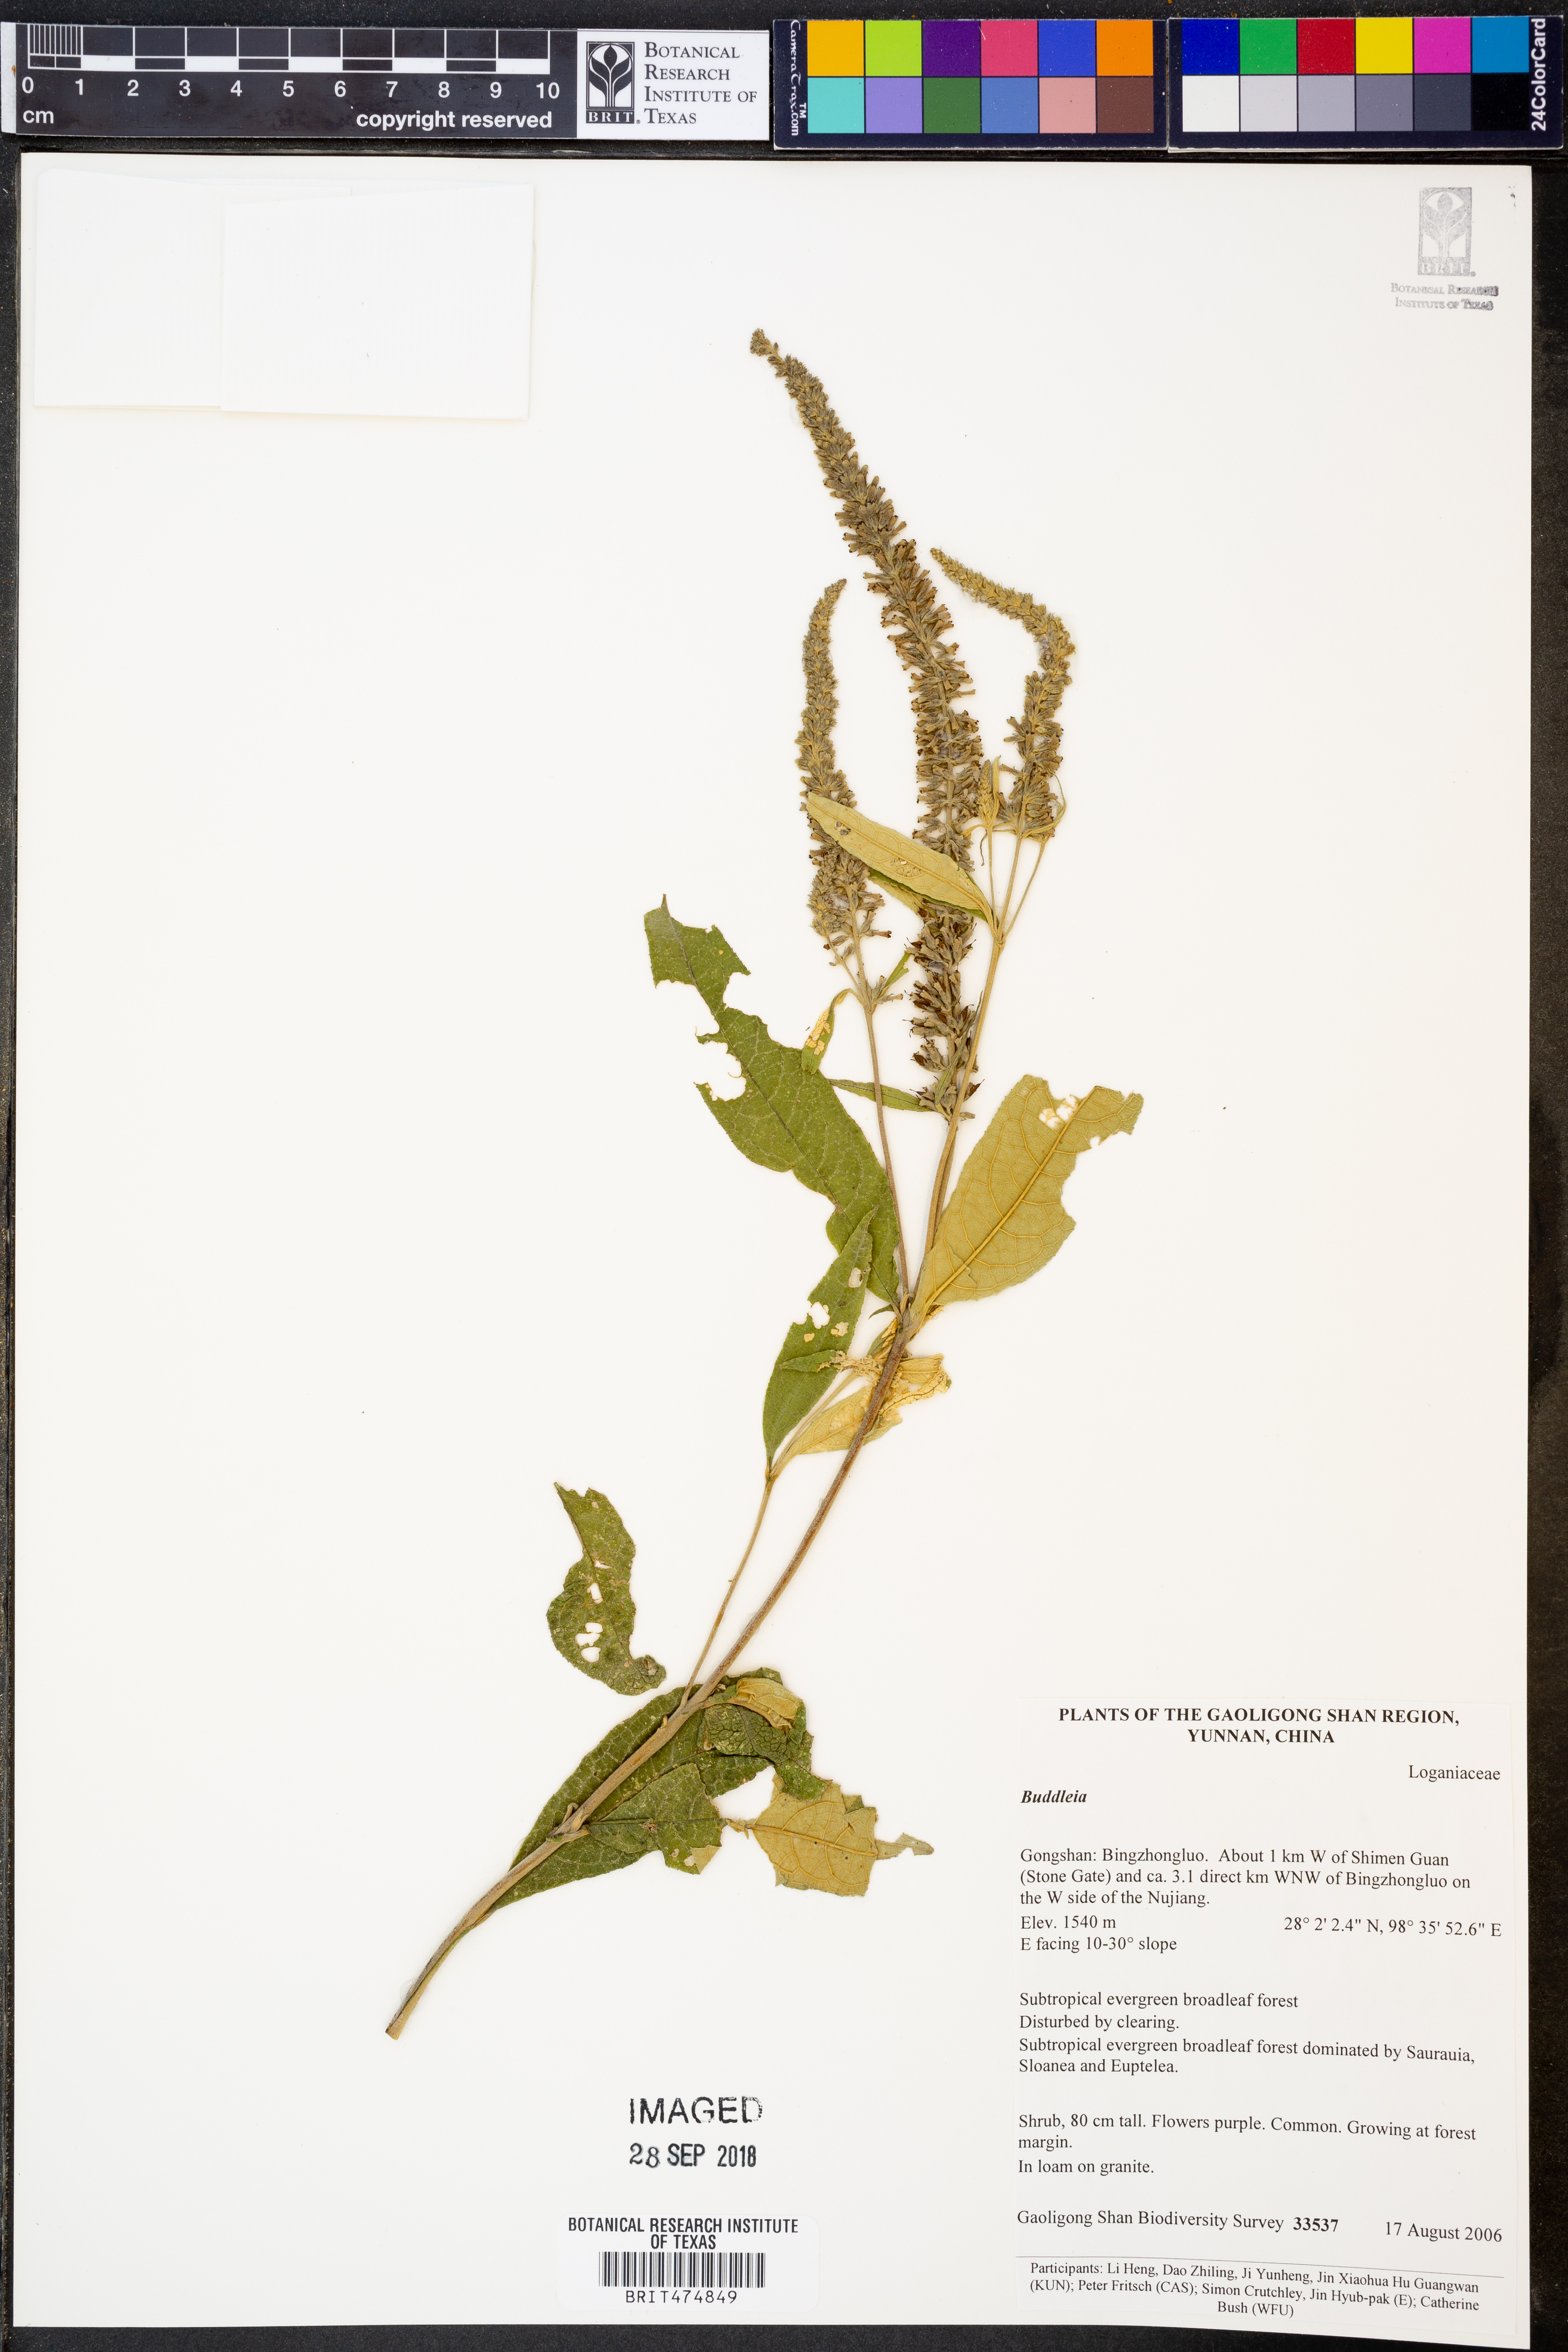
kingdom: Plantae
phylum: Tracheophyta
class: Magnoliopsida
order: Lamiales
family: Scrophulariaceae
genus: Buddleja
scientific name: Buddleja
